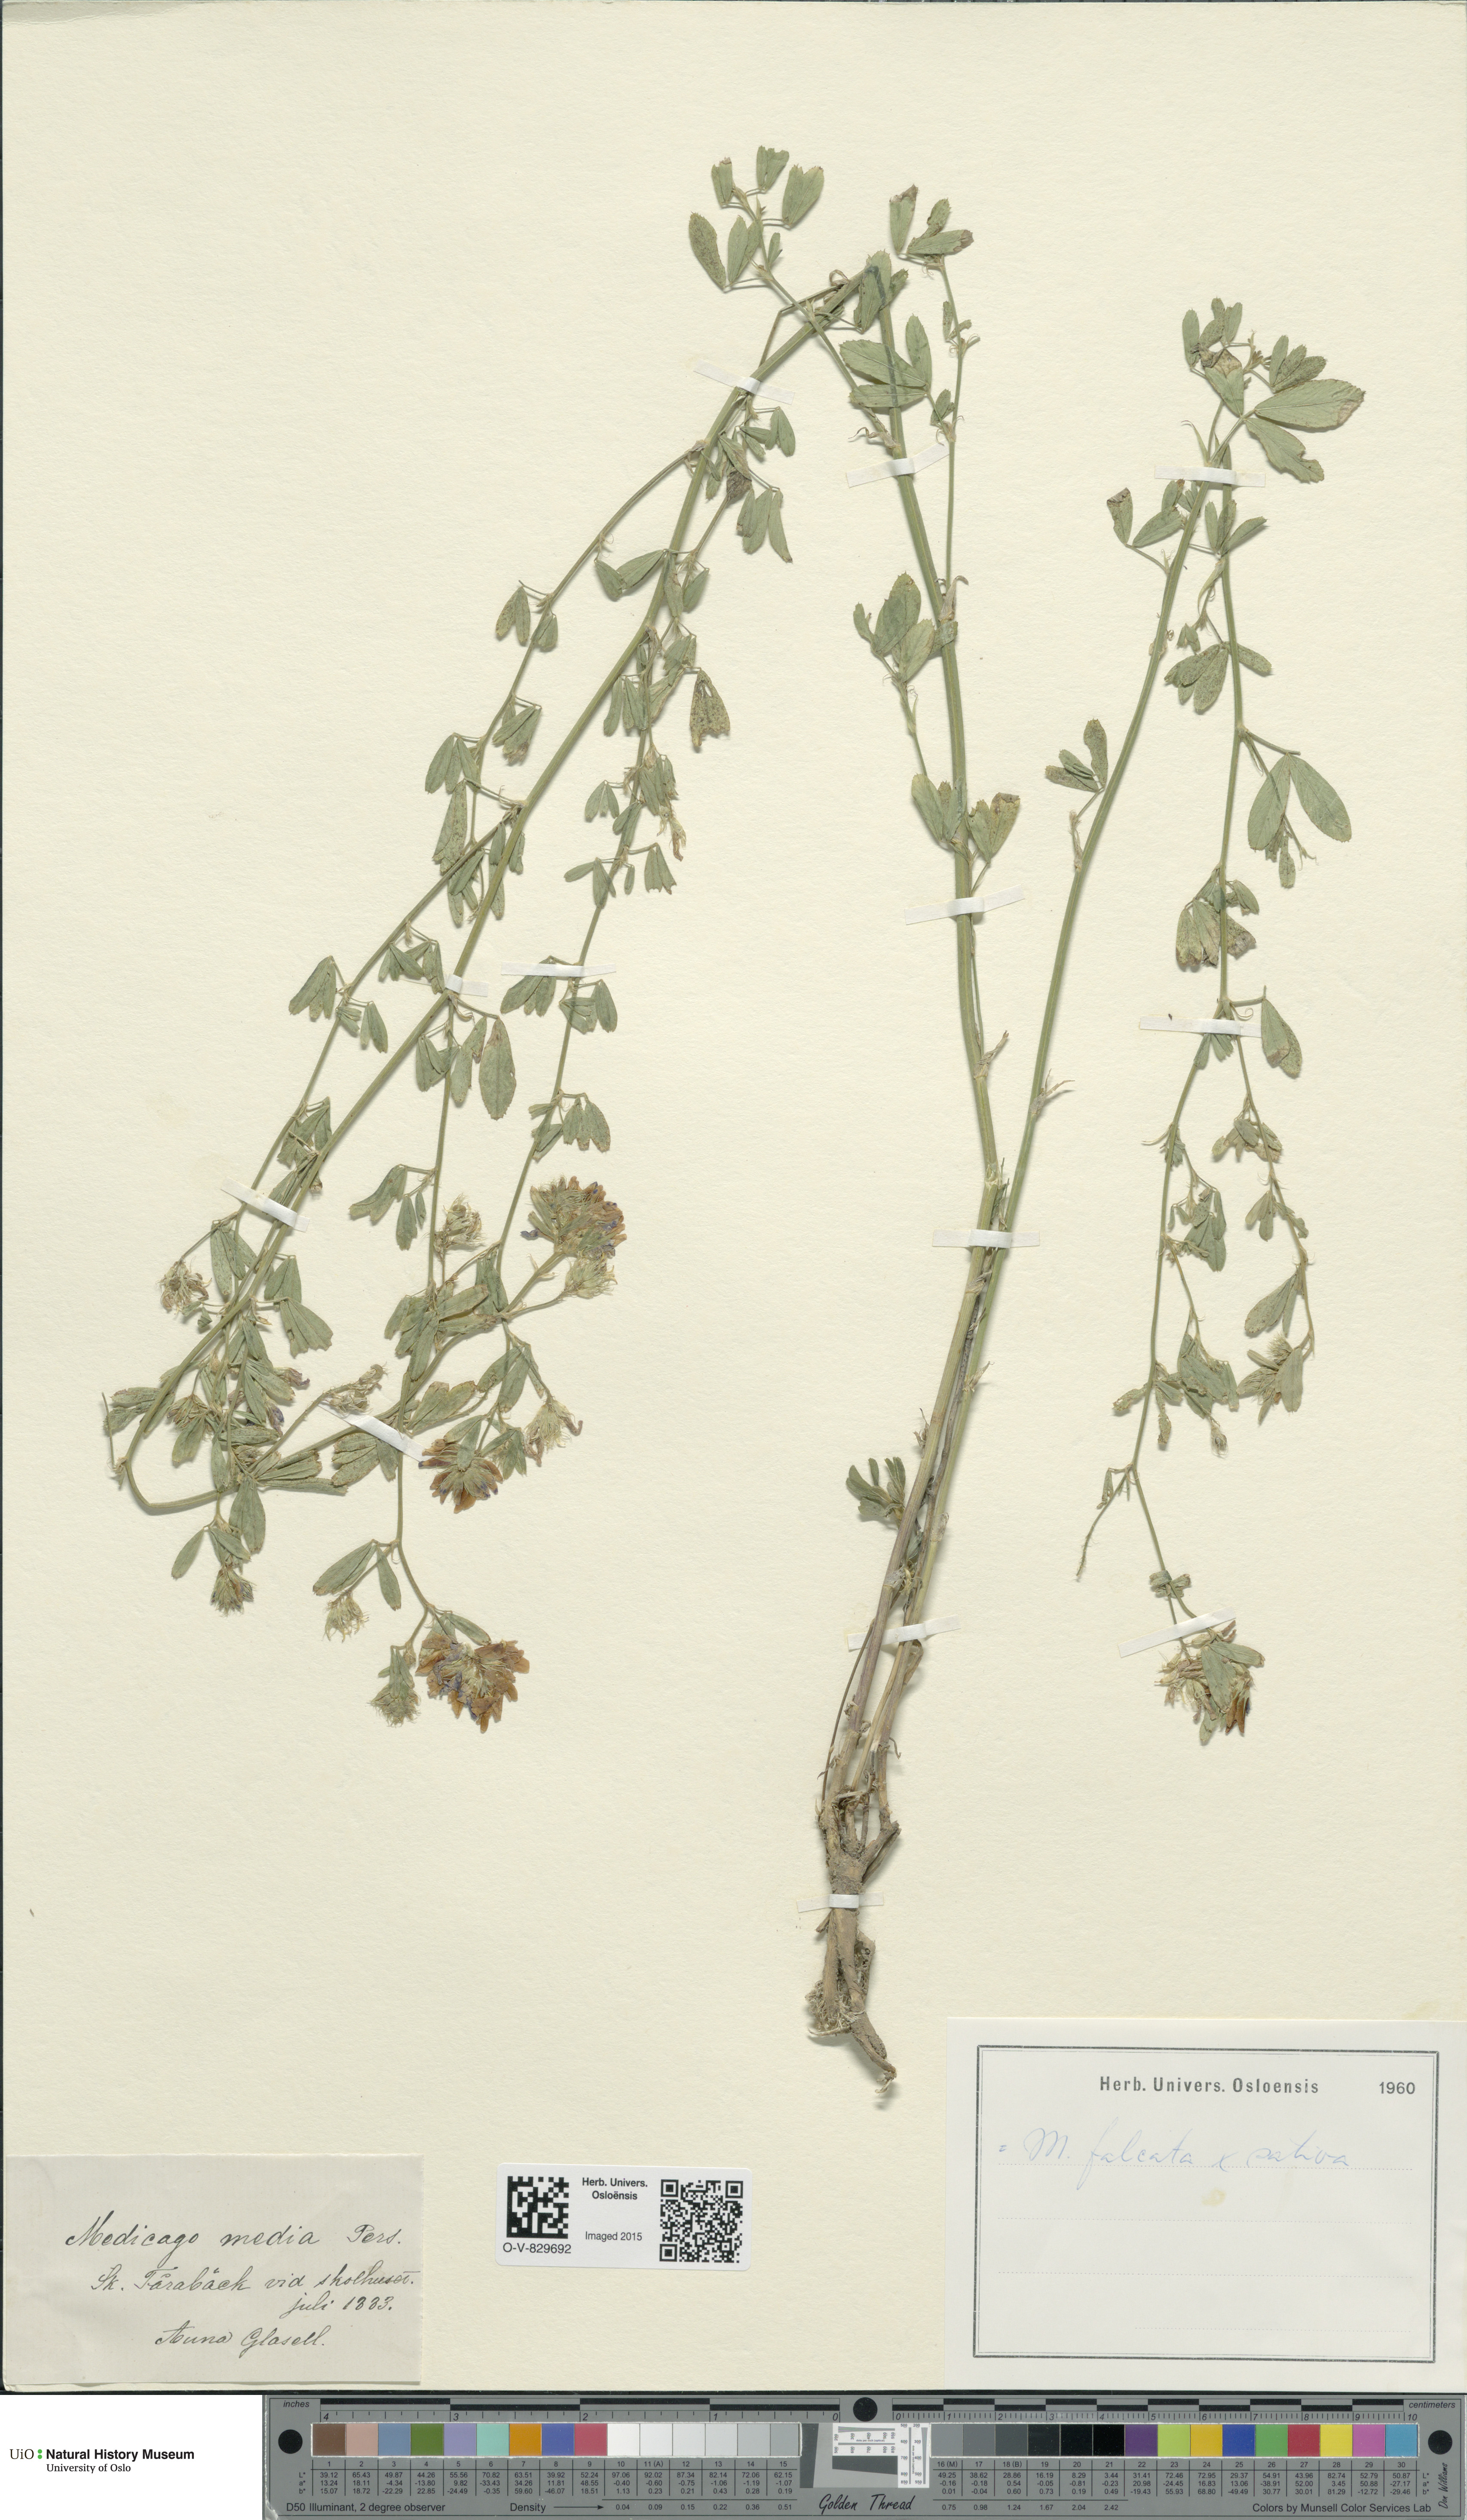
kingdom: Plantae
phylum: Tracheophyta
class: Magnoliopsida
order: Fabales
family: Fabaceae
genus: Medicago
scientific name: Medicago varia
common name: Sand lucerne
